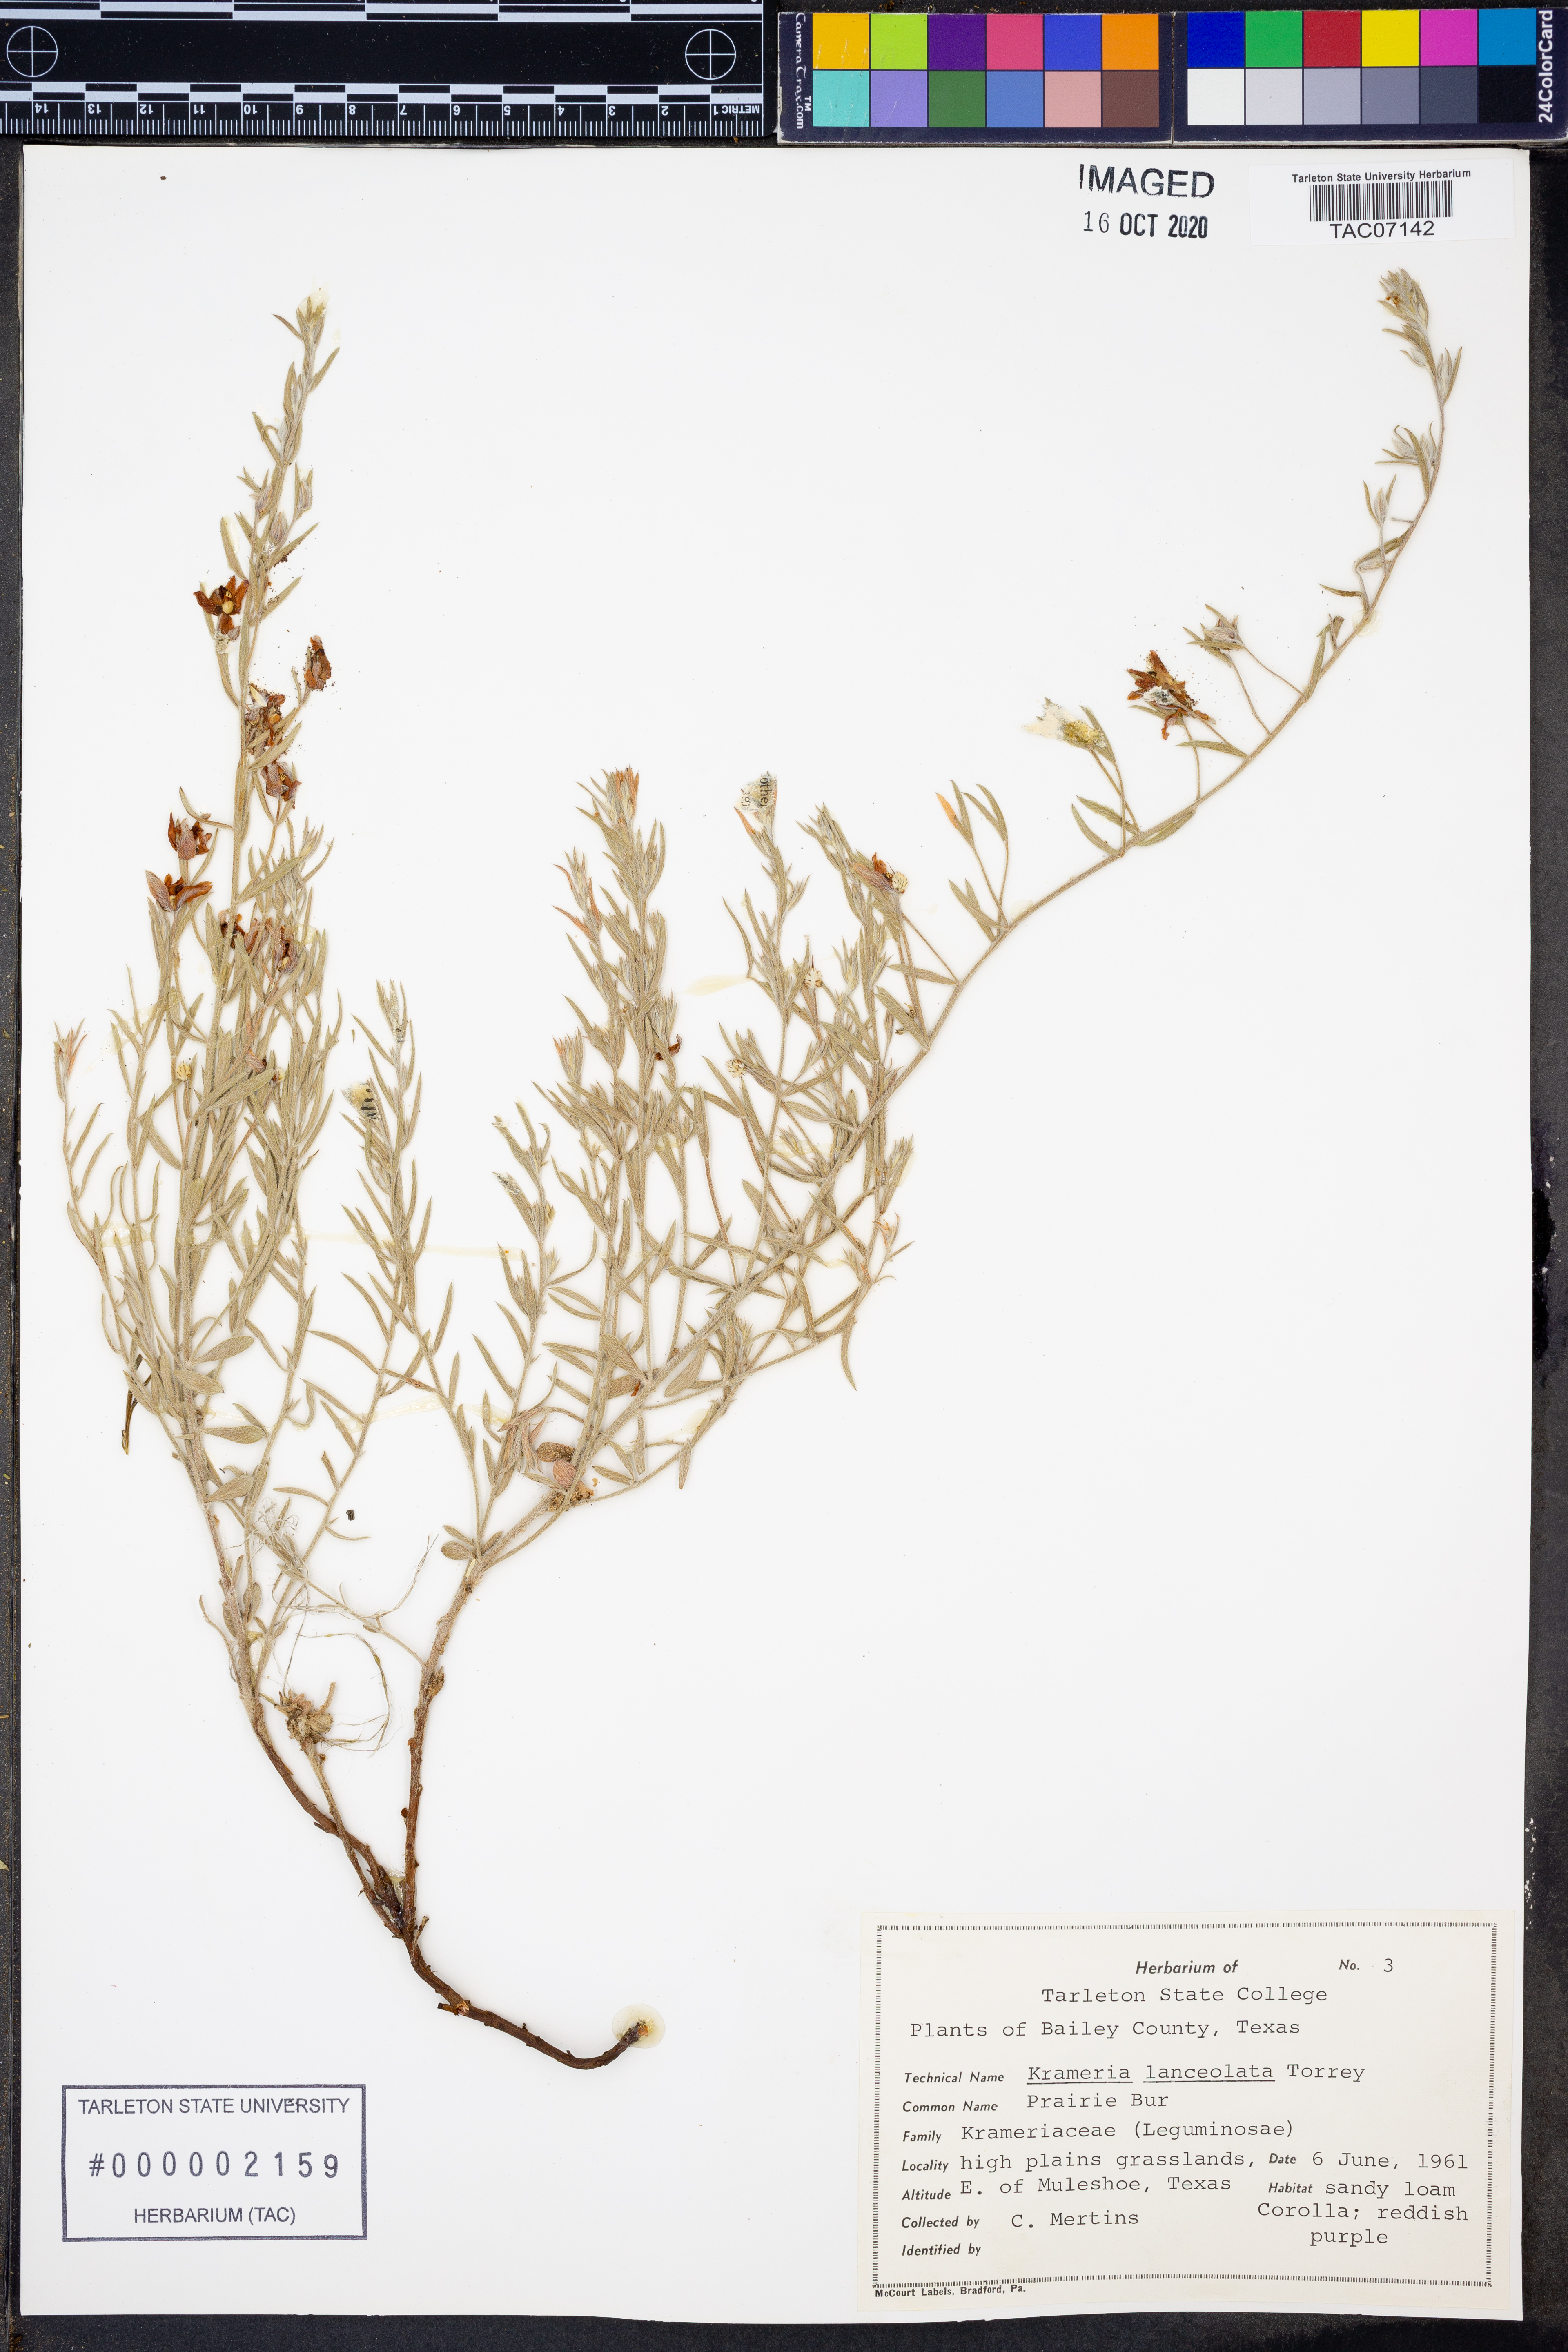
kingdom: Plantae
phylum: Tracheophyta
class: Magnoliopsida
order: Zygophyllales
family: Krameriaceae
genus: Krameria
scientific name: Krameria lanceolata
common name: Ratany
